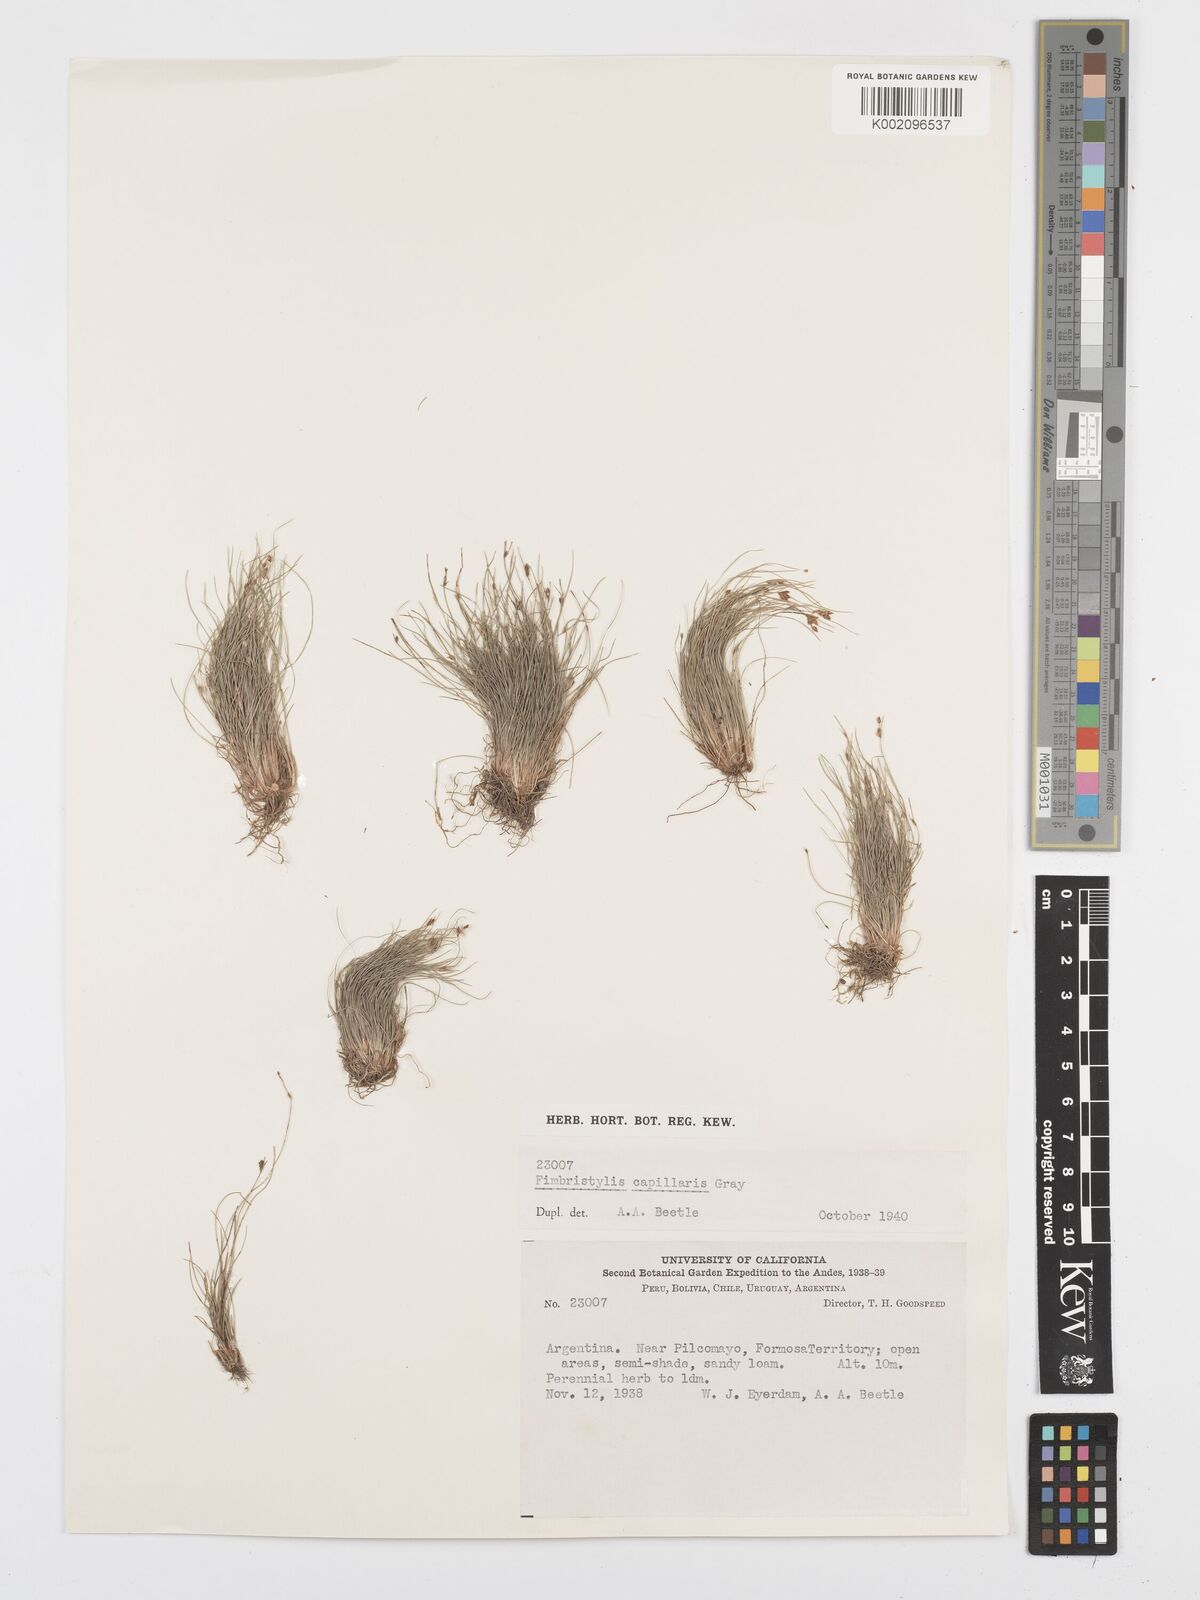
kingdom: Plantae
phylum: Tracheophyta
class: Liliopsida
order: Poales
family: Cyperaceae
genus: Bulbostylis
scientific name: Bulbostylis capillaris
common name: Densetuft hairsedge
